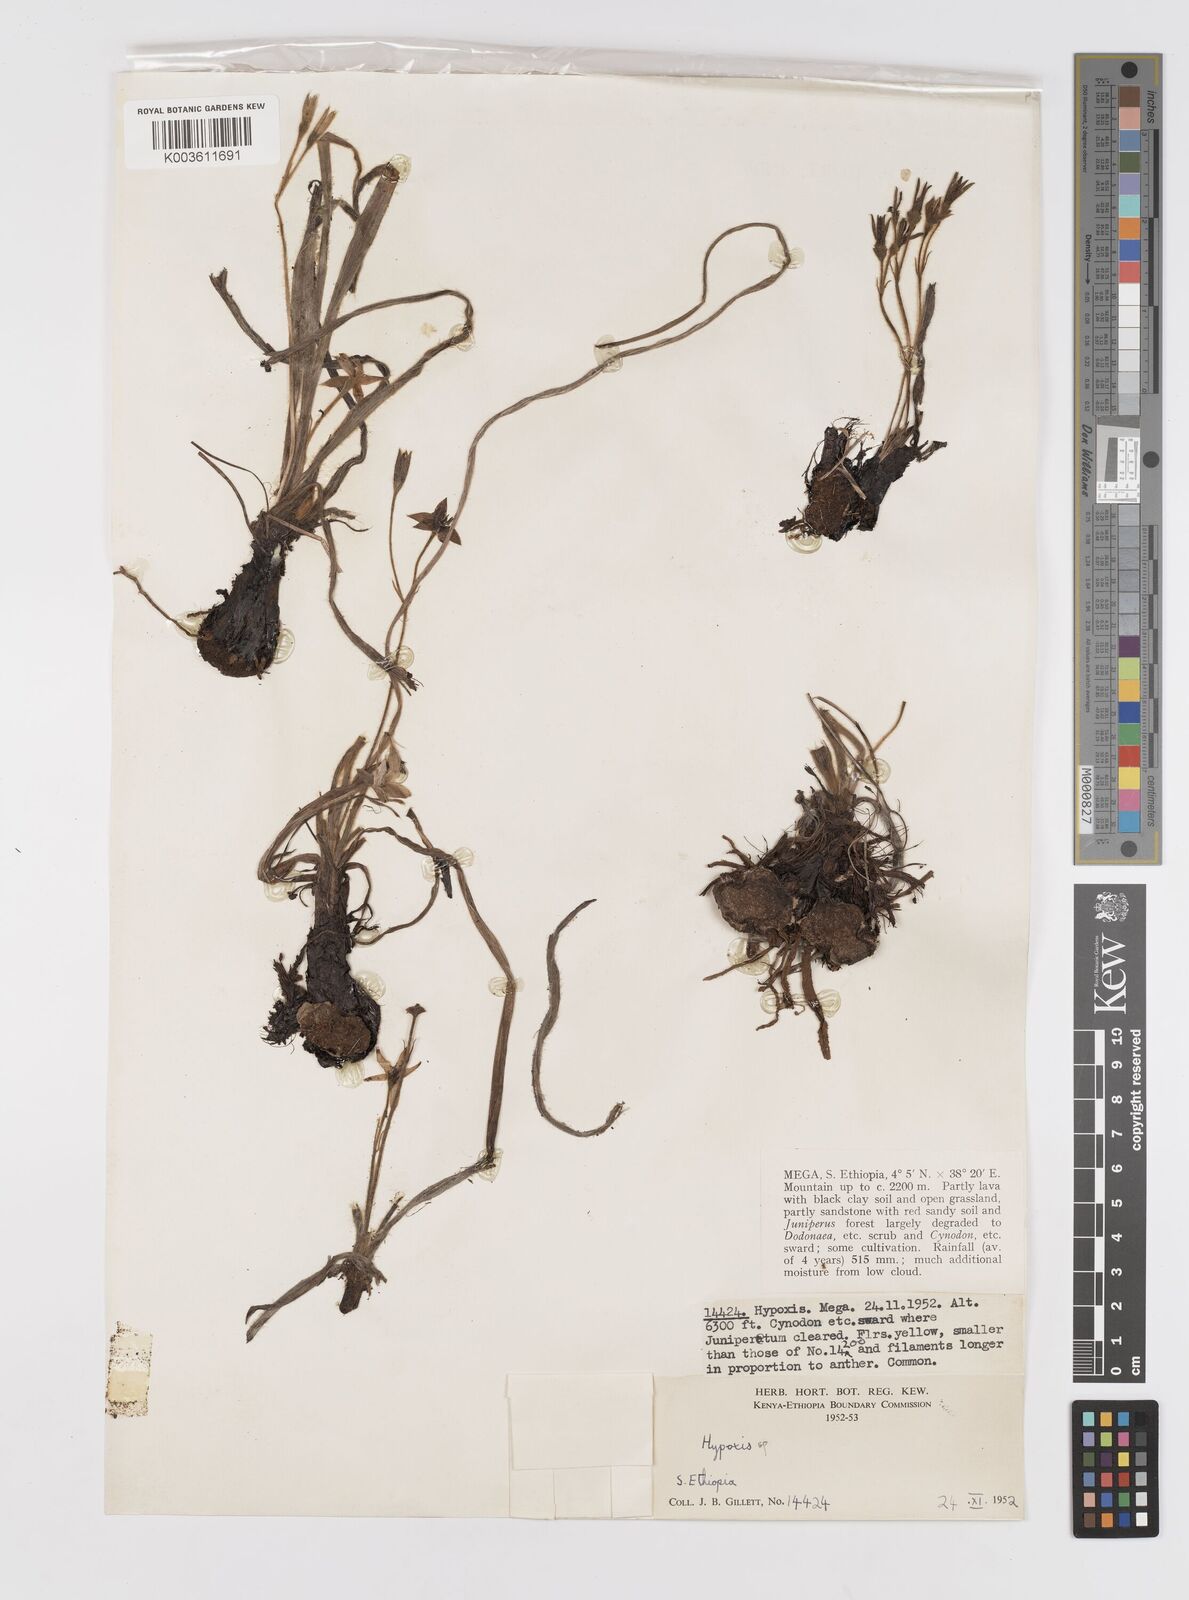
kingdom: Plantae
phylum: Tracheophyta
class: Liliopsida
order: Asparagales
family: Hypoxidaceae
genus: Hypoxis
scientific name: Hypoxis
